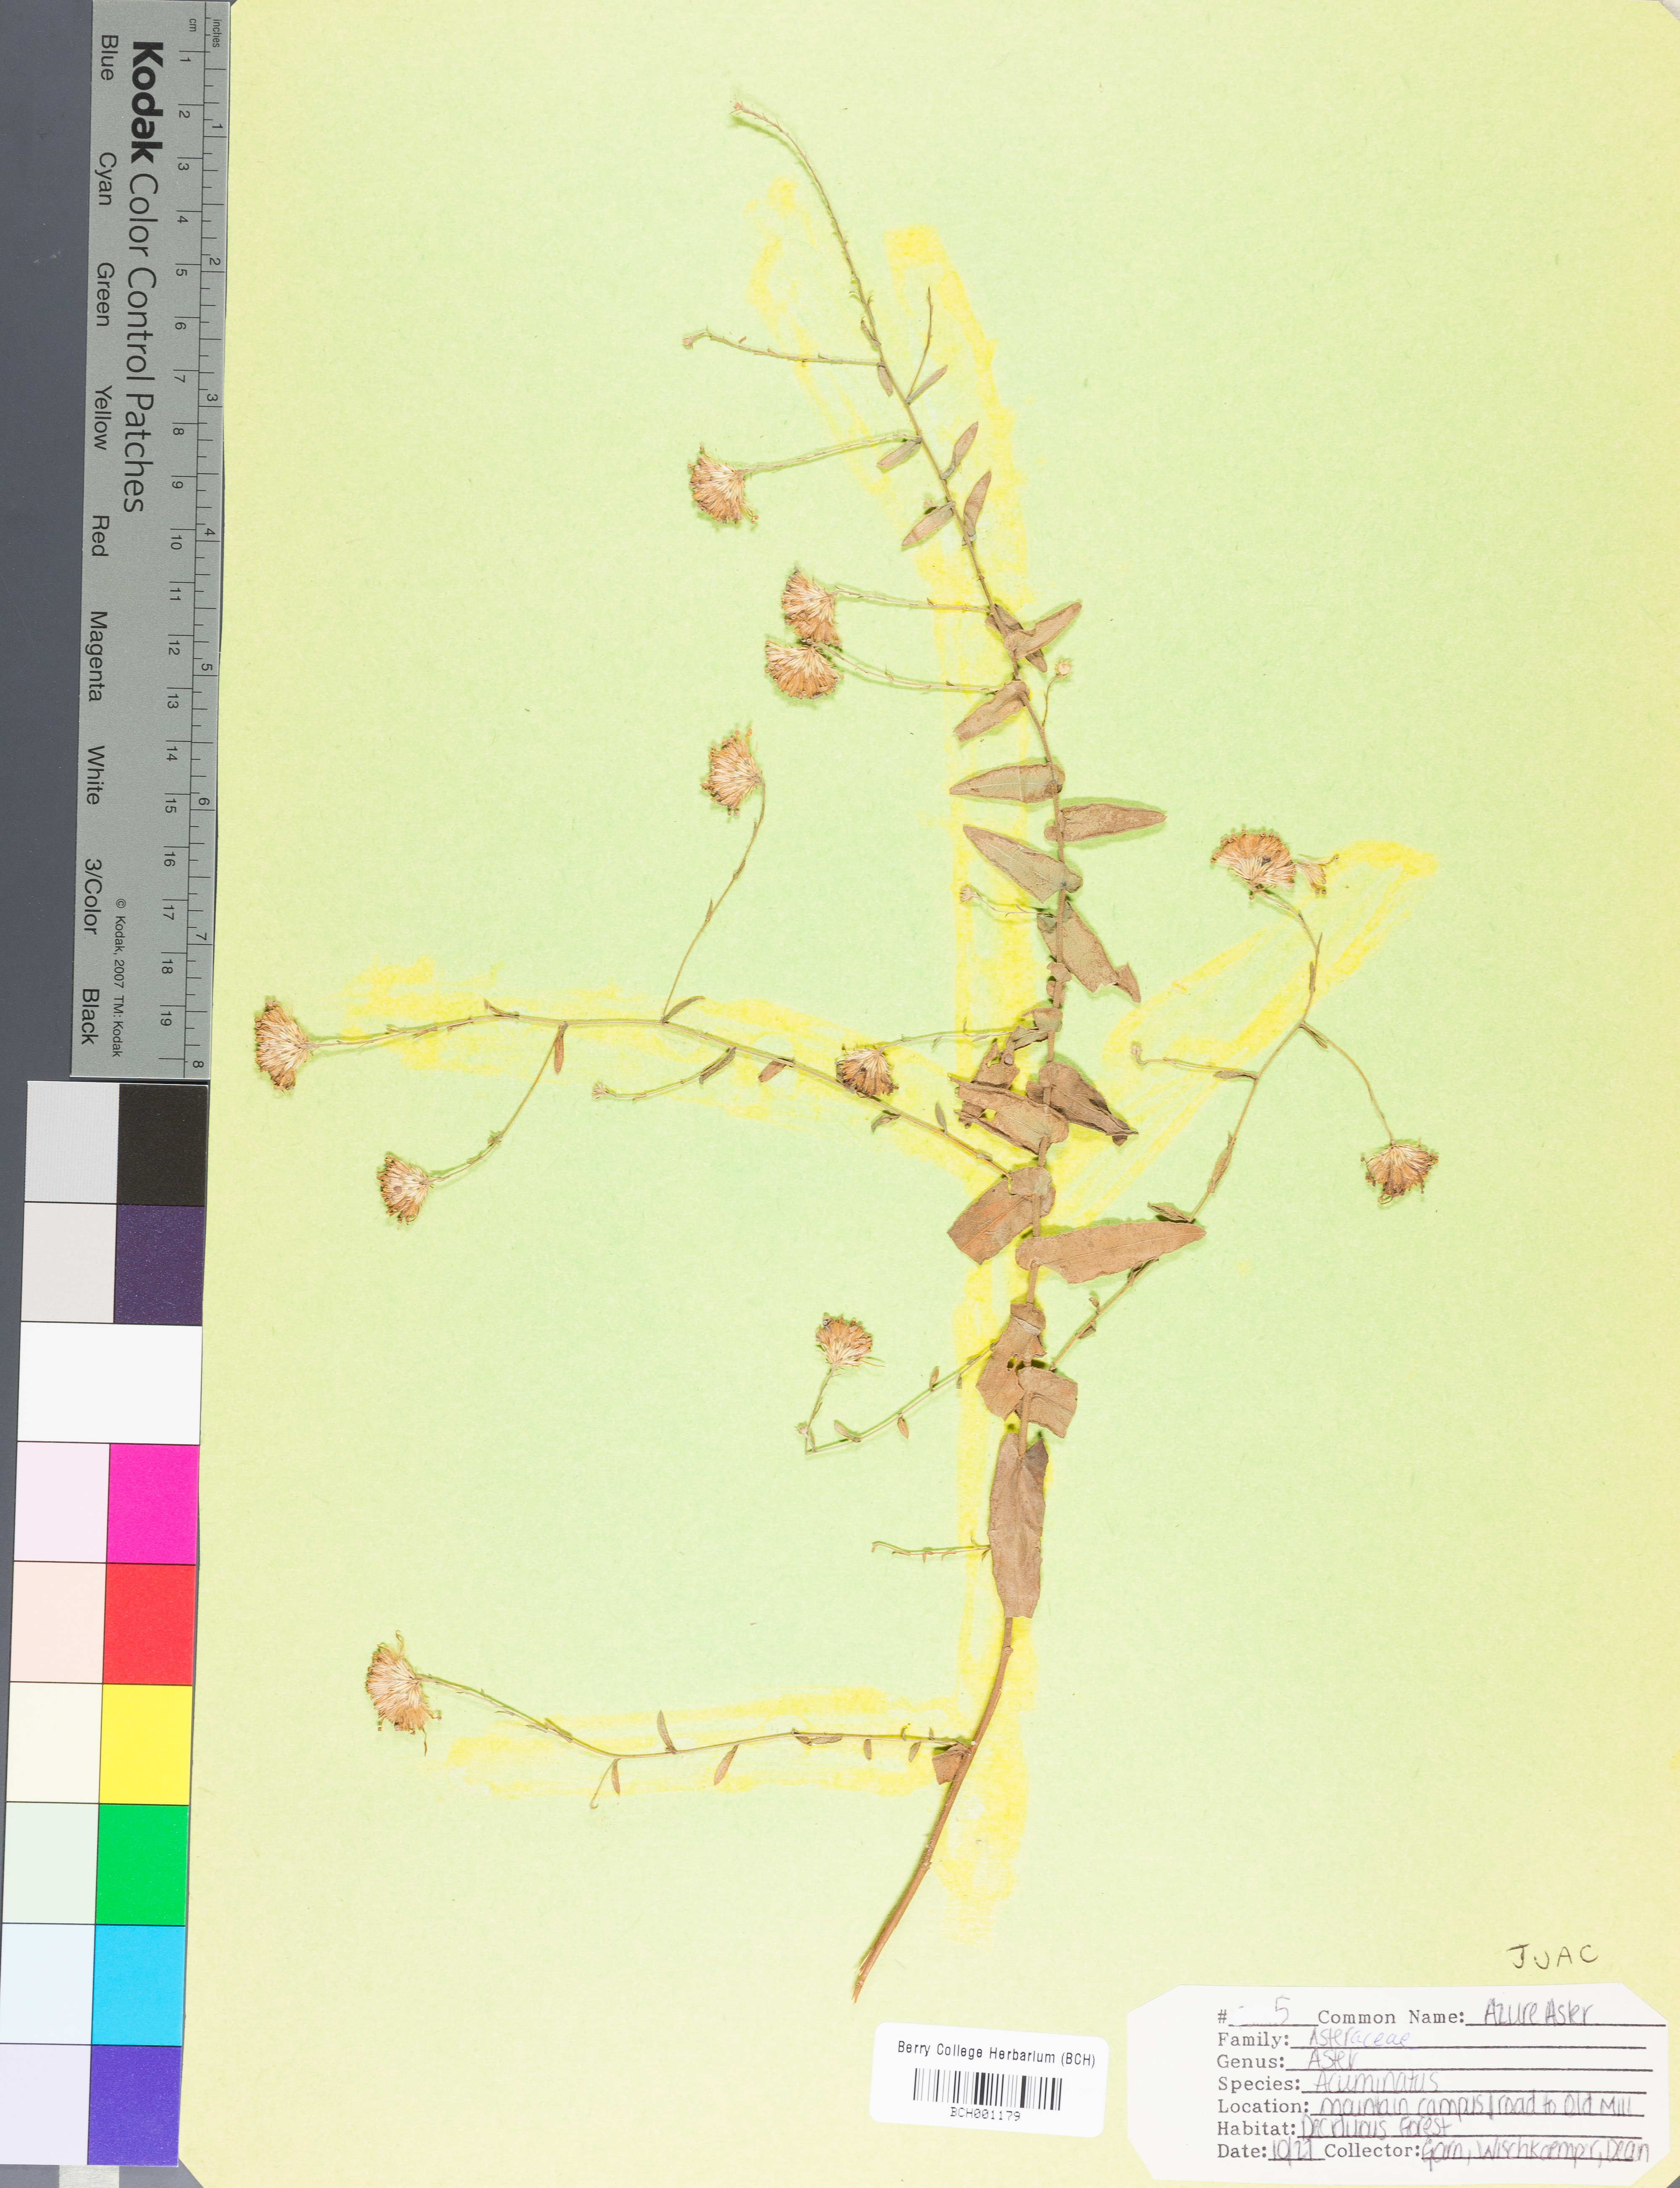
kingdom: Plantae
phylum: Tracheophyta
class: Liliopsida
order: Poales
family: Juncaceae
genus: Juncus
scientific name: Juncus acuminatus
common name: Knotty-leaved rush
